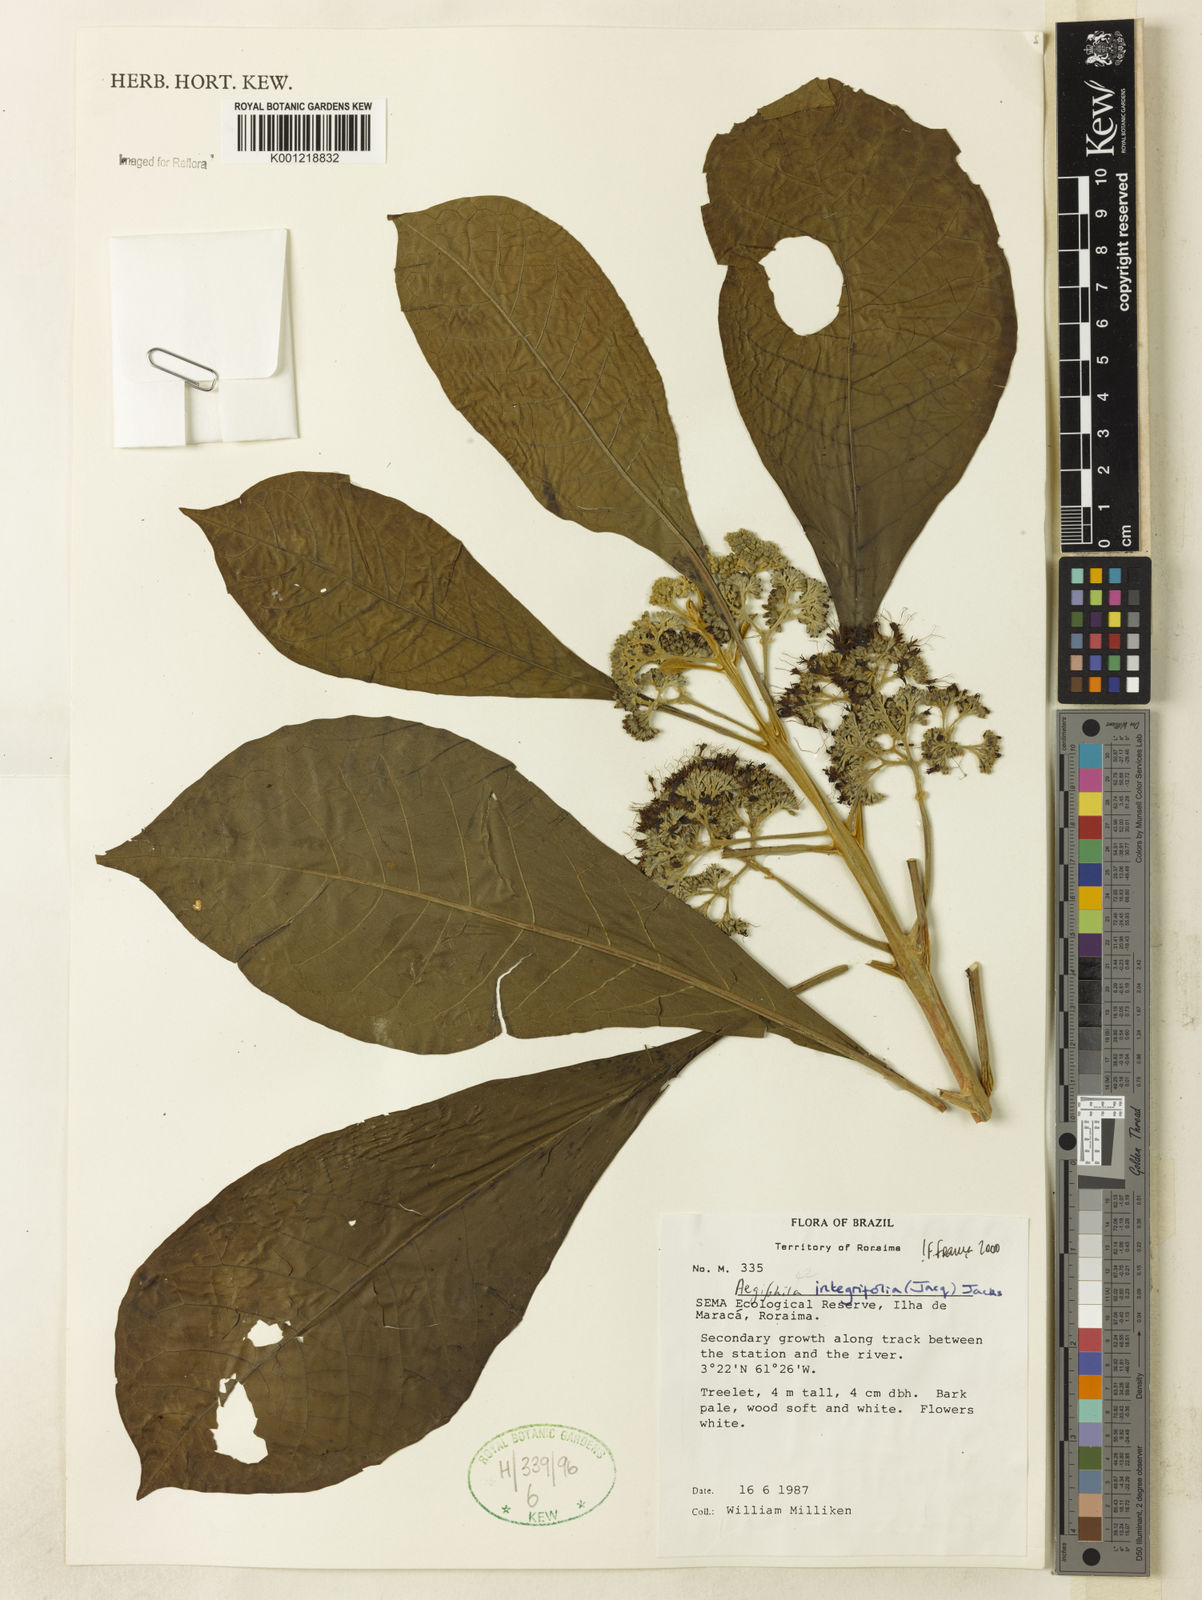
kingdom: Plantae
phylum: Tracheophyta
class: Magnoliopsida
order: Lamiales
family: Lamiaceae
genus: Aegiphila
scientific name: Aegiphila
